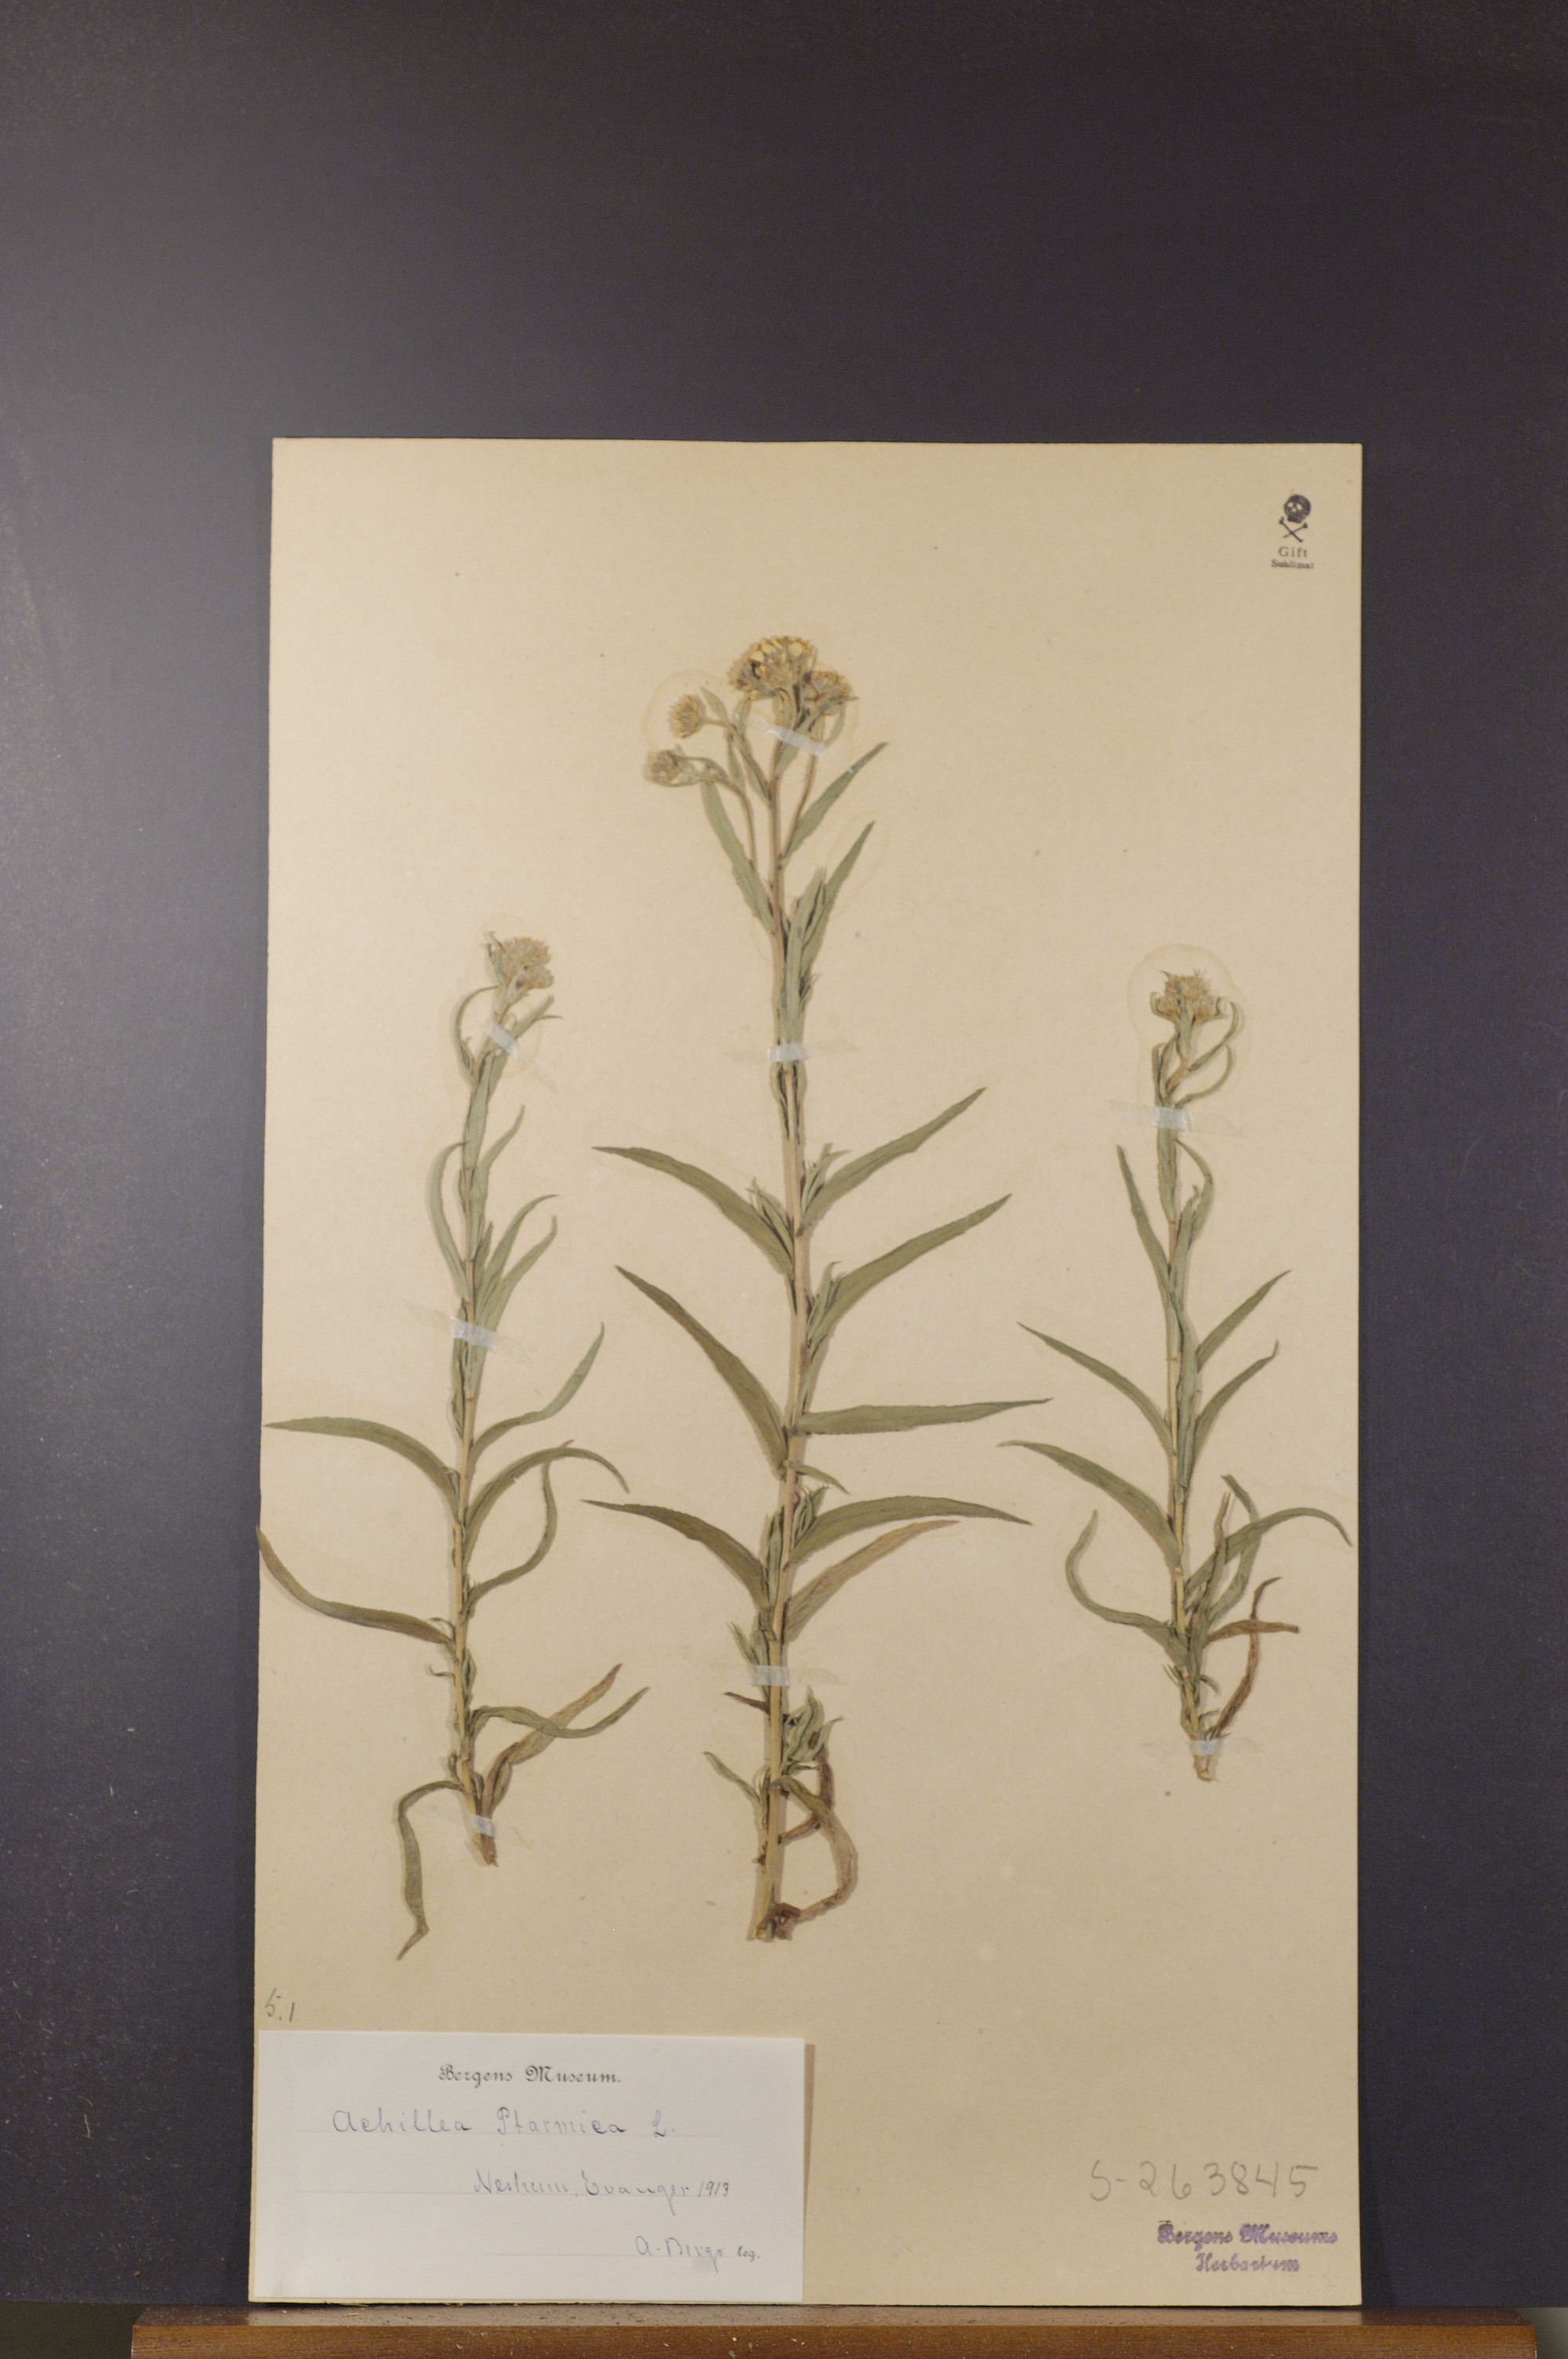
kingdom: Plantae
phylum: Tracheophyta
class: Magnoliopsida
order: Asterales
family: Asteraceae
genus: Achillea
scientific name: Achillea ptarmica
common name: Sneezeweed
